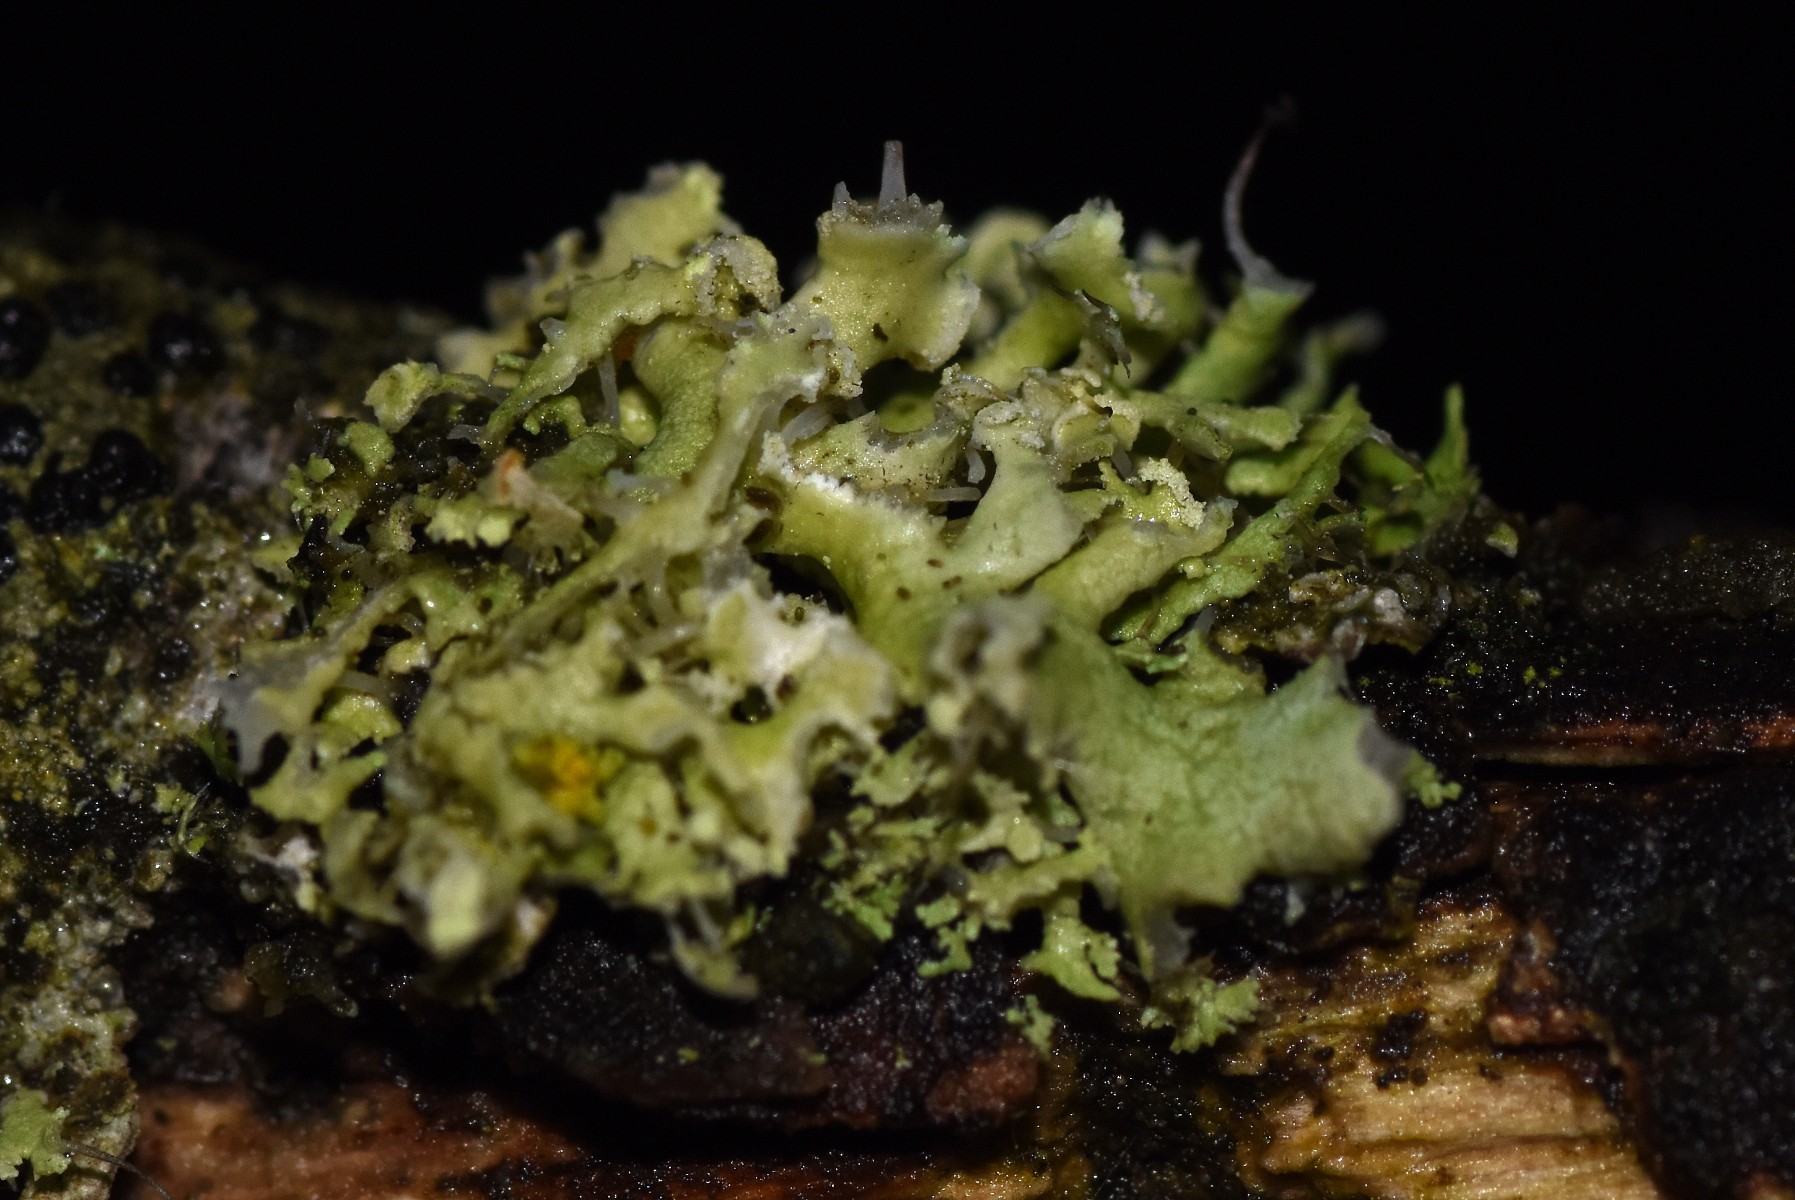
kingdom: Fungi
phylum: Ascomycota
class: Lecanoromycetes
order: Caliciales
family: Physciaceae
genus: Physcia
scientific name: Physcia tenella
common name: spæd rosetlav
